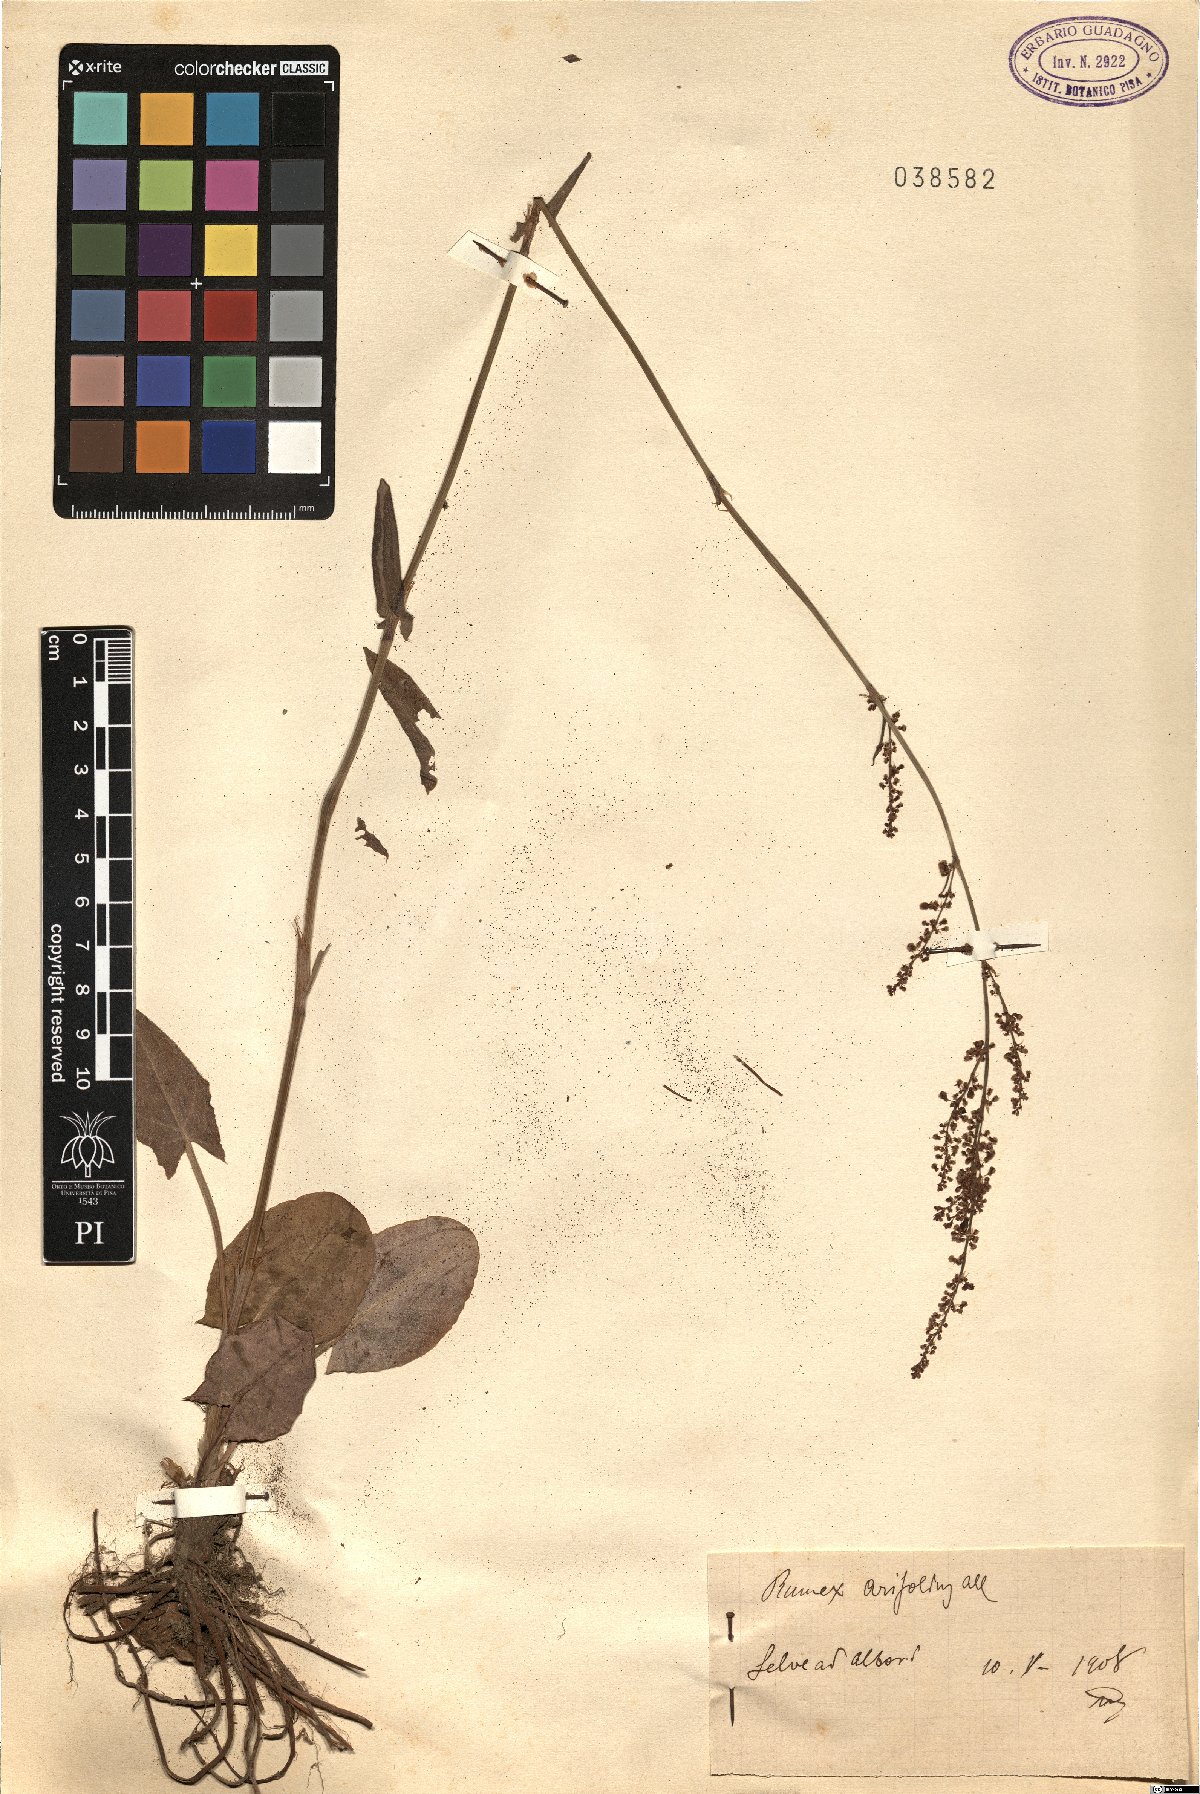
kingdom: Plantae
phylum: Tracheophyta
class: Magnoliopsida
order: Caryophyllales
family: Polygonaceae
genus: Rumex
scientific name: Rumex arifolius
